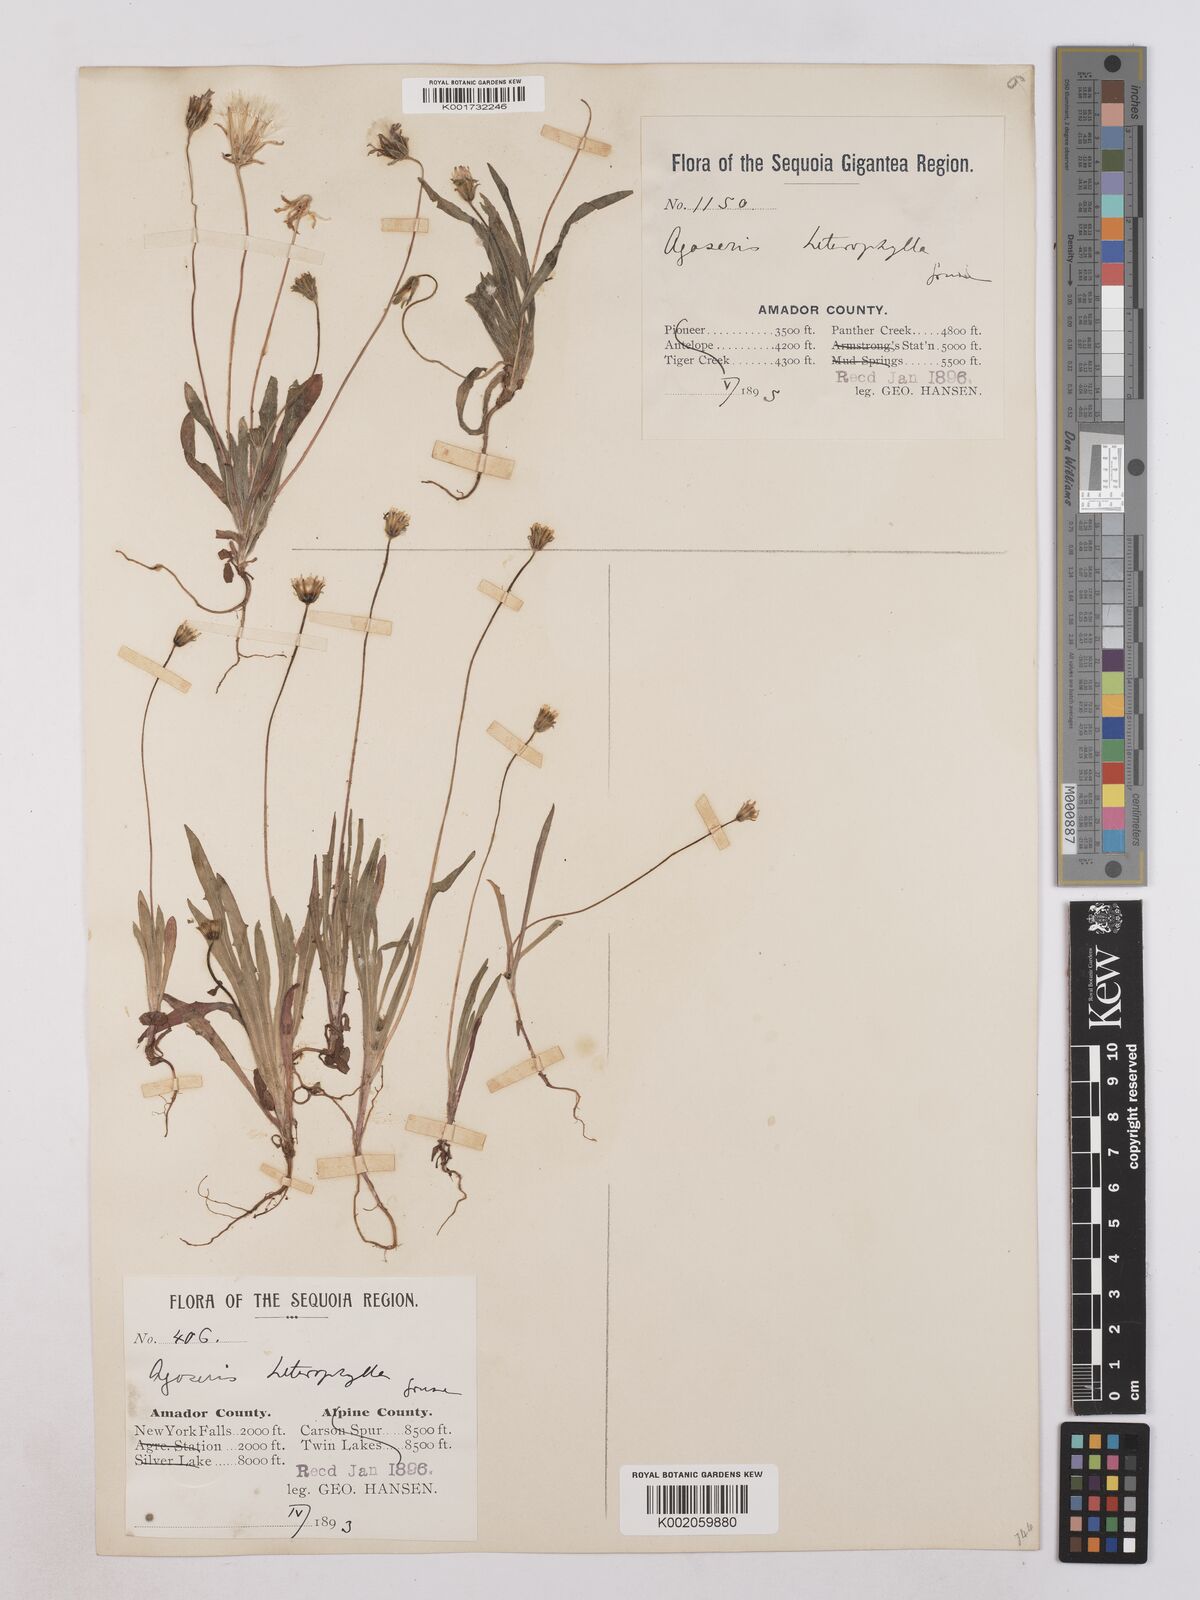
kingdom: Plantae
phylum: Tracheophyta
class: Magnoliopsida
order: Asterales
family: Asteraceae
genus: Agoseris
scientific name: Agoseris heterophylla
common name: Annual agoseris
